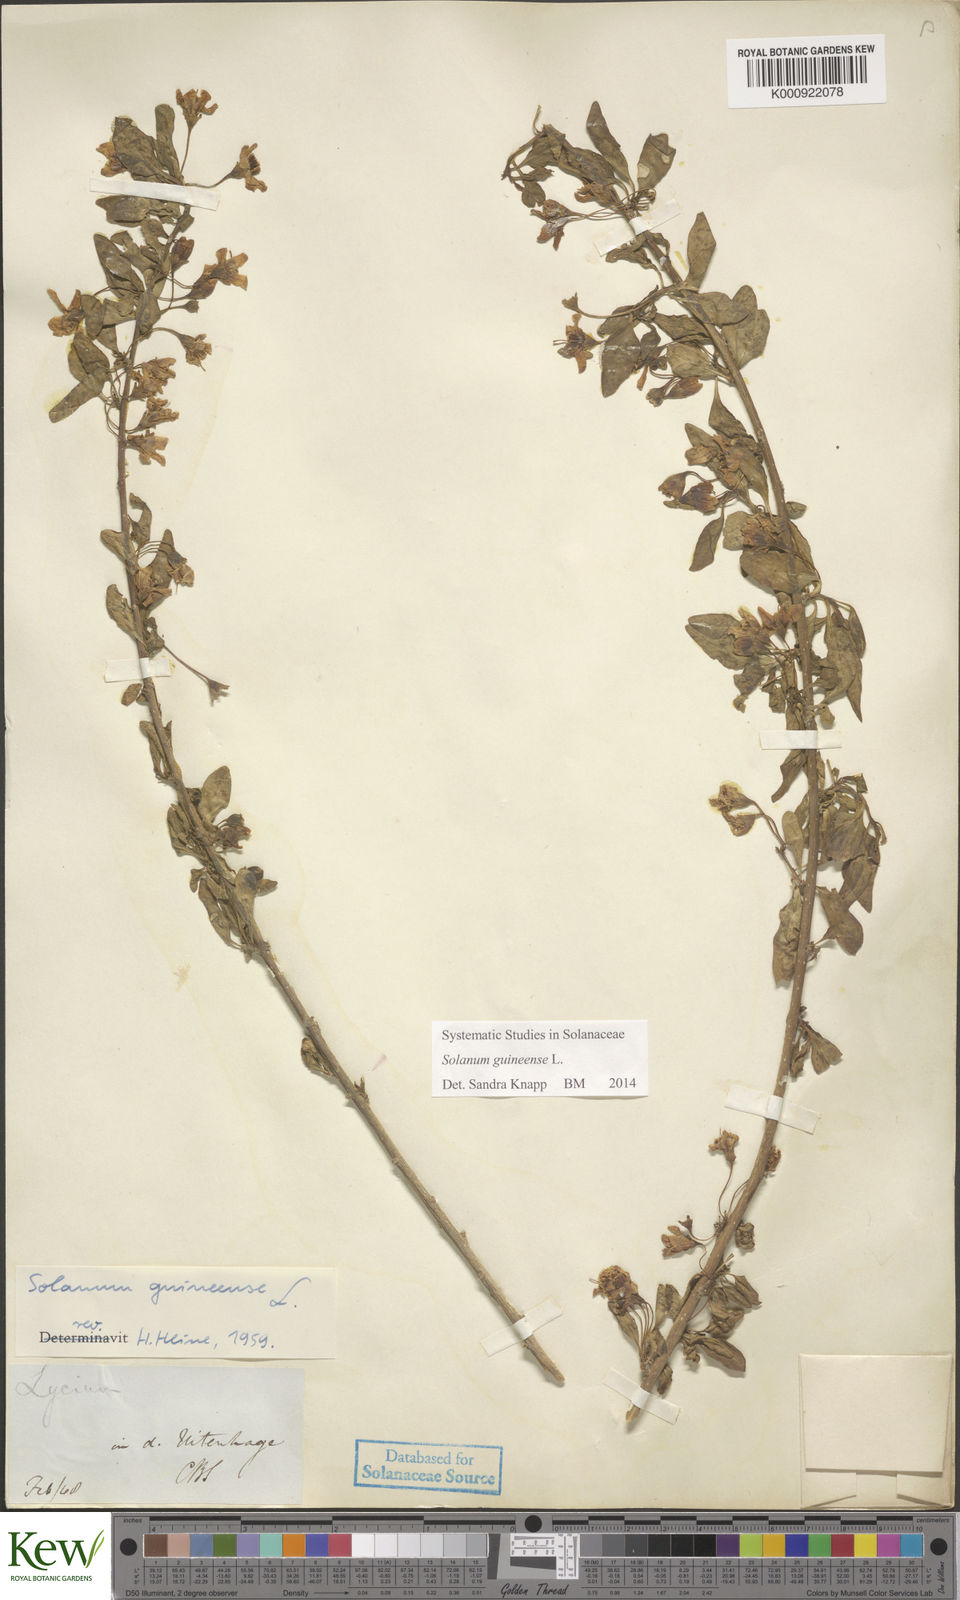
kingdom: Plantae
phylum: Tracheophyta
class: Magnoliopsida
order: Solanales
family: Solanaceae
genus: Solanum
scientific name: Solanum guineense
